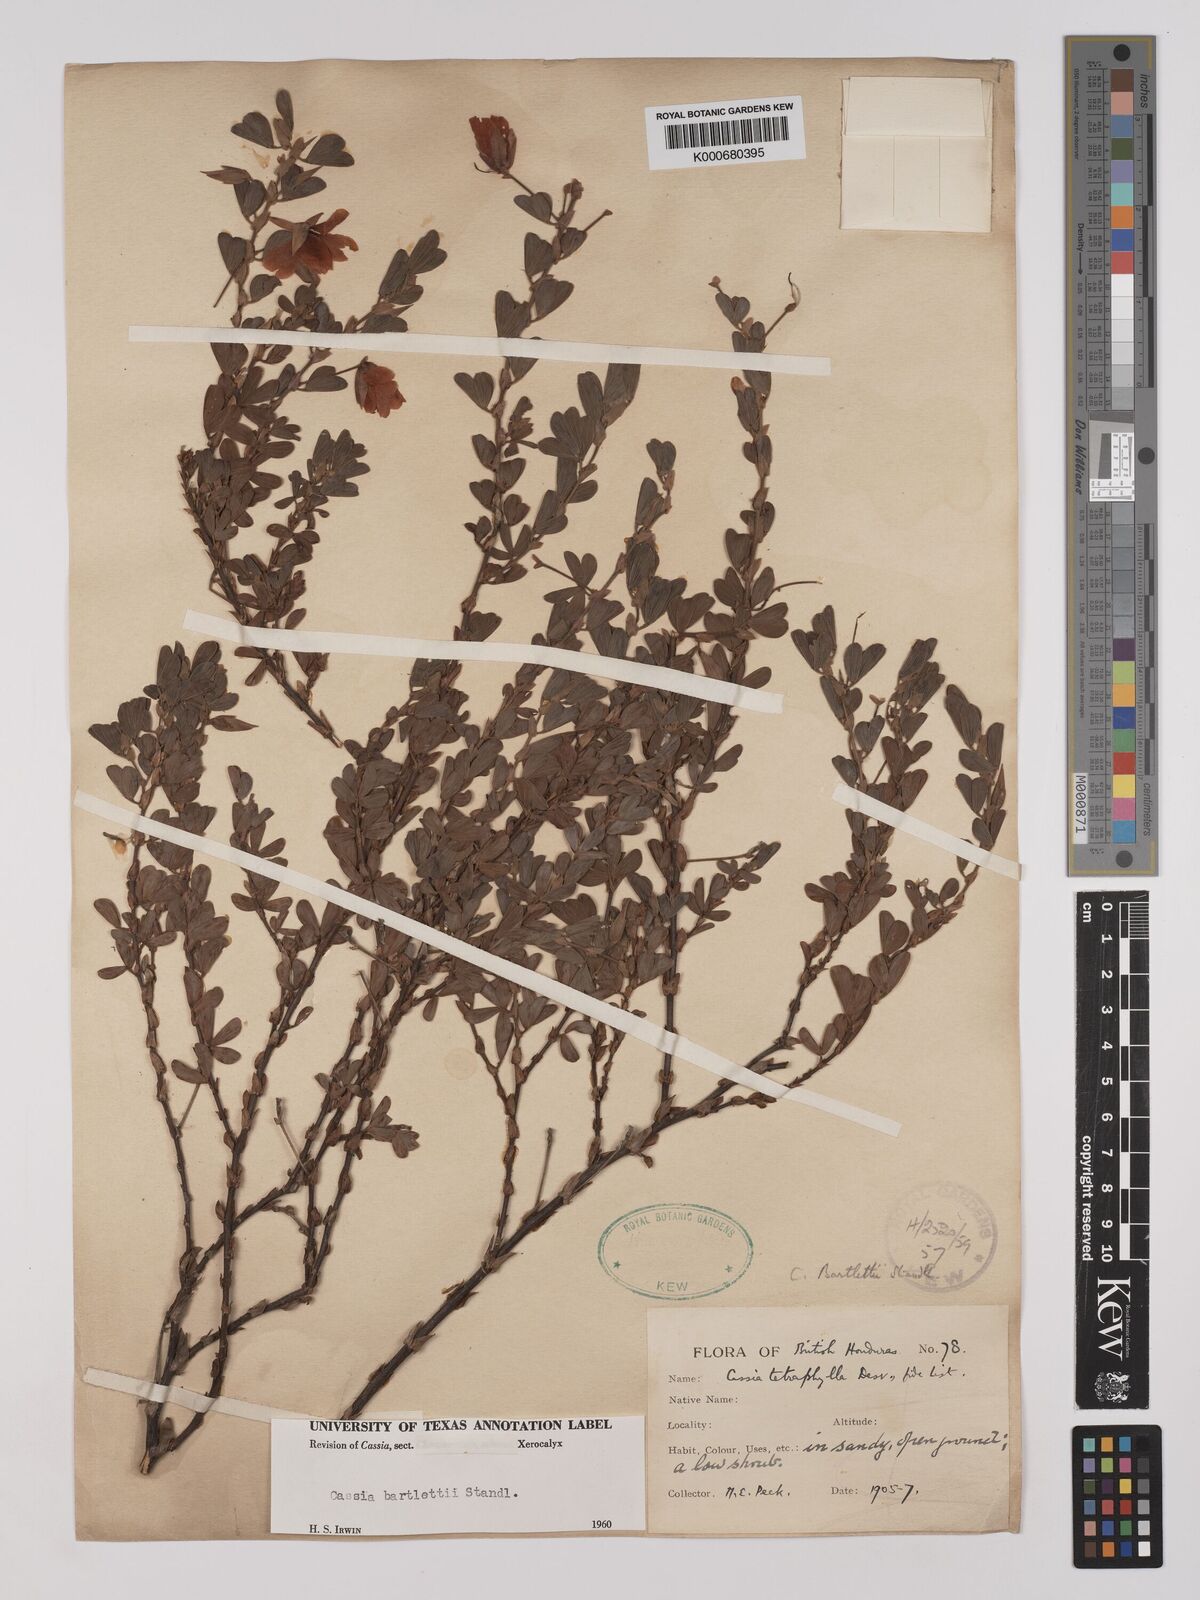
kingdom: Plantae
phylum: Tracheophyta
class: Magnoliopsida
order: Fabales
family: Fabaceae
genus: Chamaecrista
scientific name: Chamaecrista desvauxii
